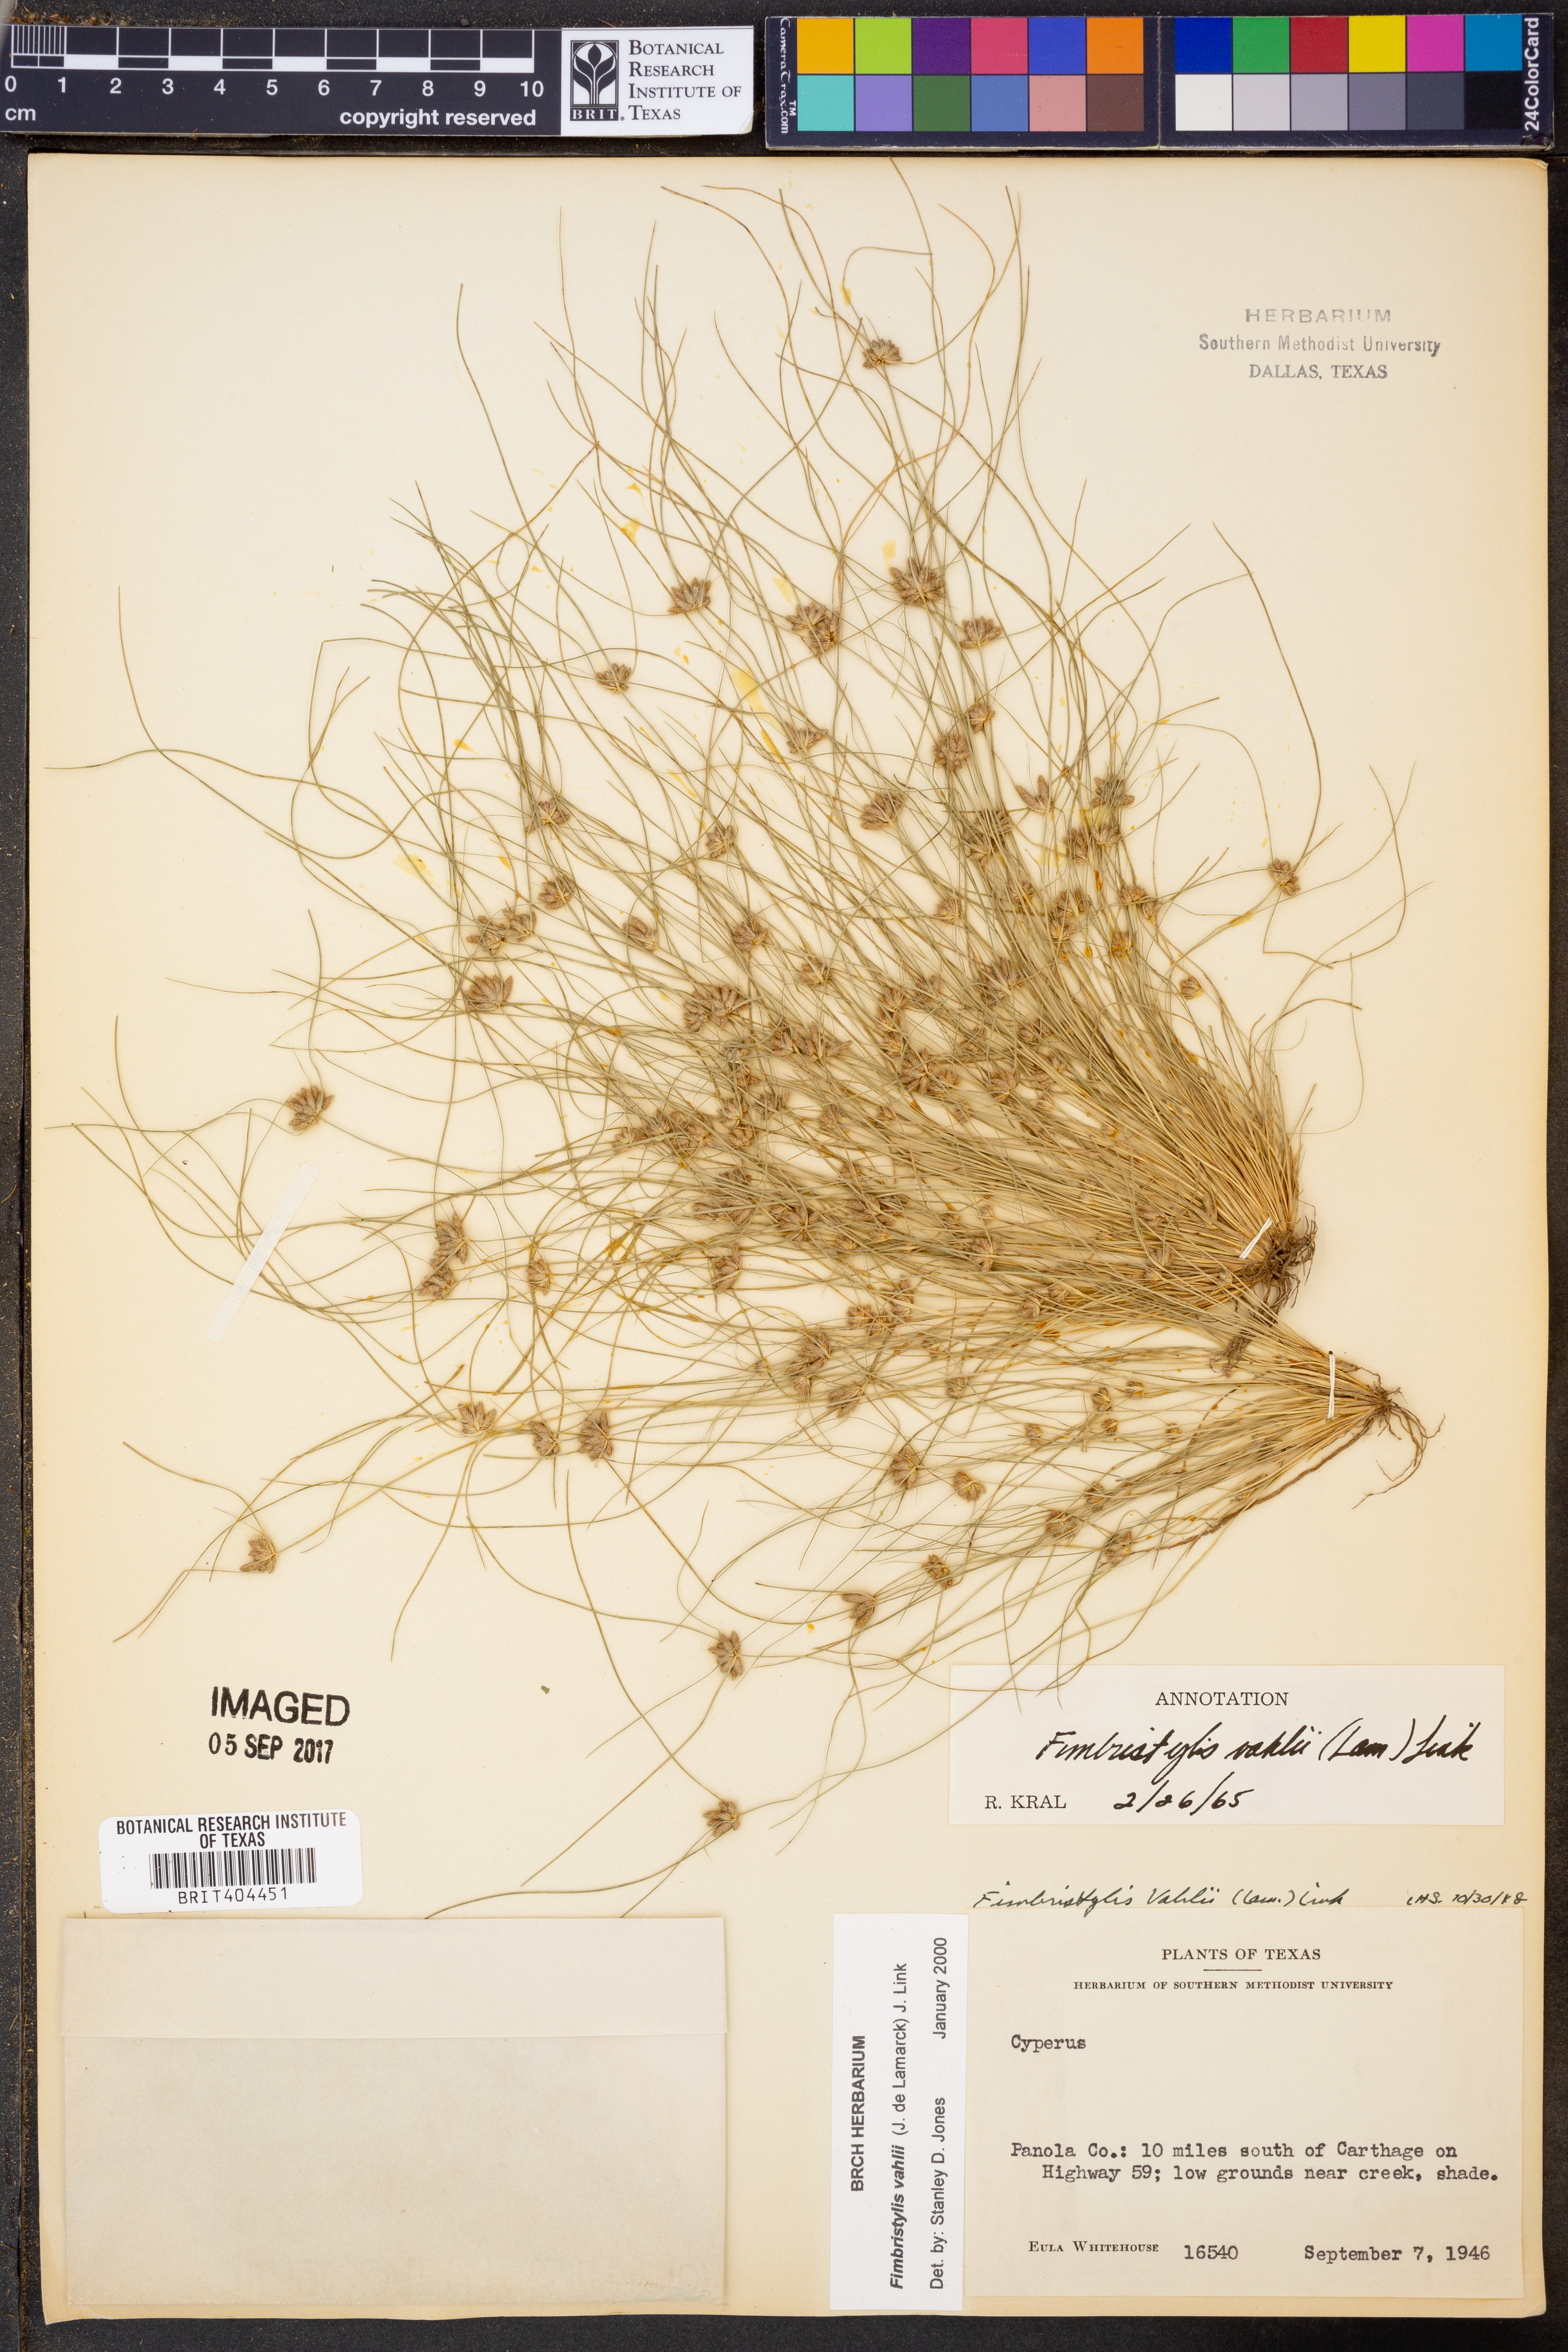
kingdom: Plantae
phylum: Tracheophyta
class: Liliopsida
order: Poales
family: Cyperaceae
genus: Fimbristylis
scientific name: Fimbristylis vahlii
